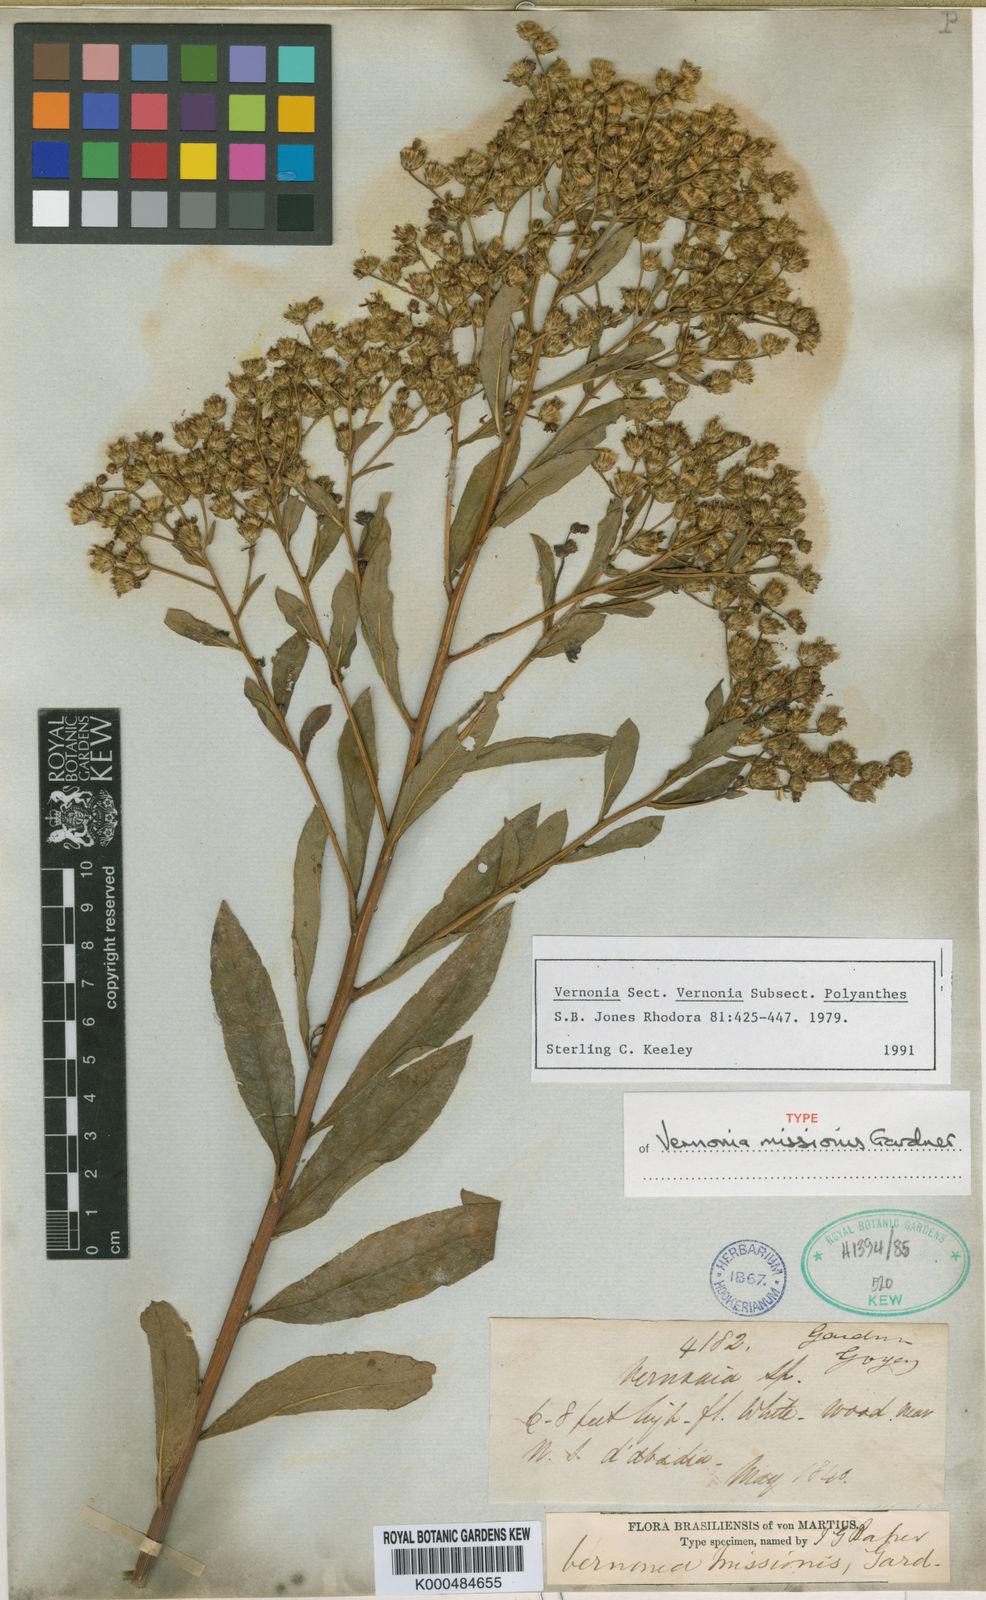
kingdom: Plantae
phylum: Tracheophyta
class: Magnoliopsida
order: Asterales
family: Asteraceae
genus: Vernonanthura
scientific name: Vernonanthura cymosa
